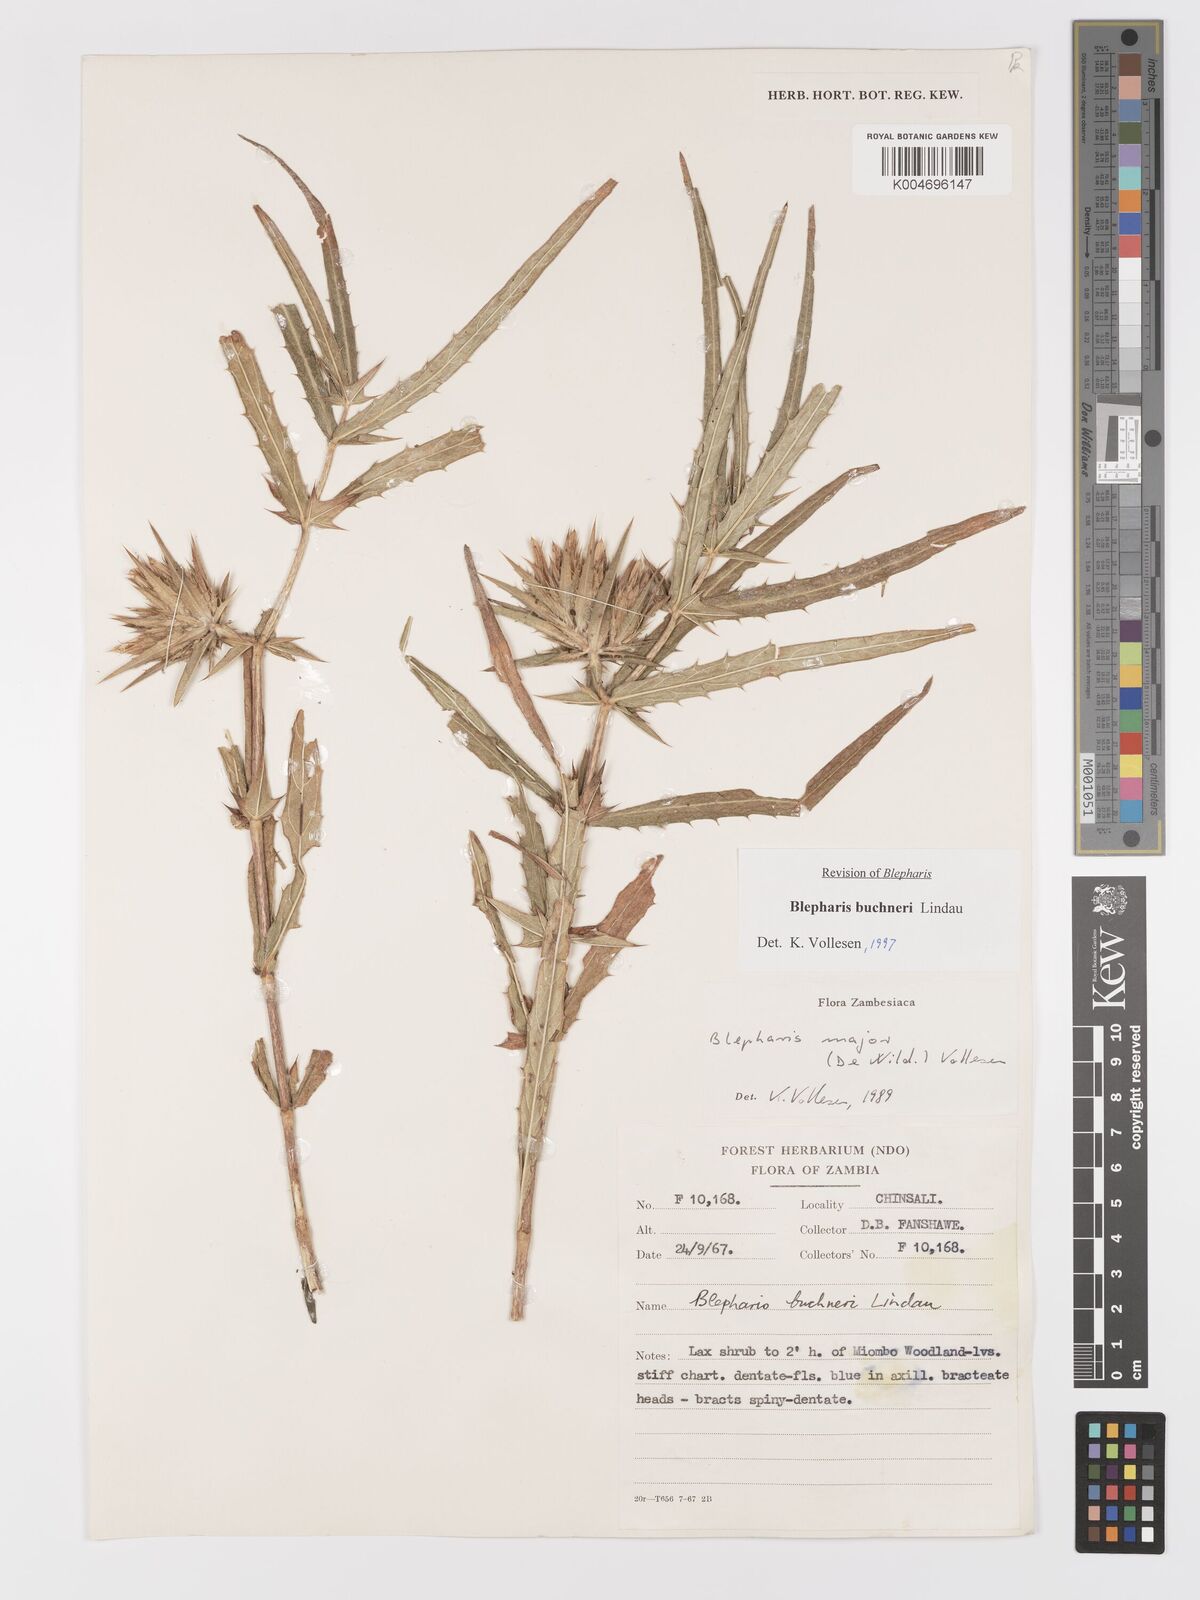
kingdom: Plantae
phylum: Tracheophyta
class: Magnoliopsida
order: Lamiales
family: Acanthaceae
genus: Blepharis
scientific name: Blepharis buchneri
